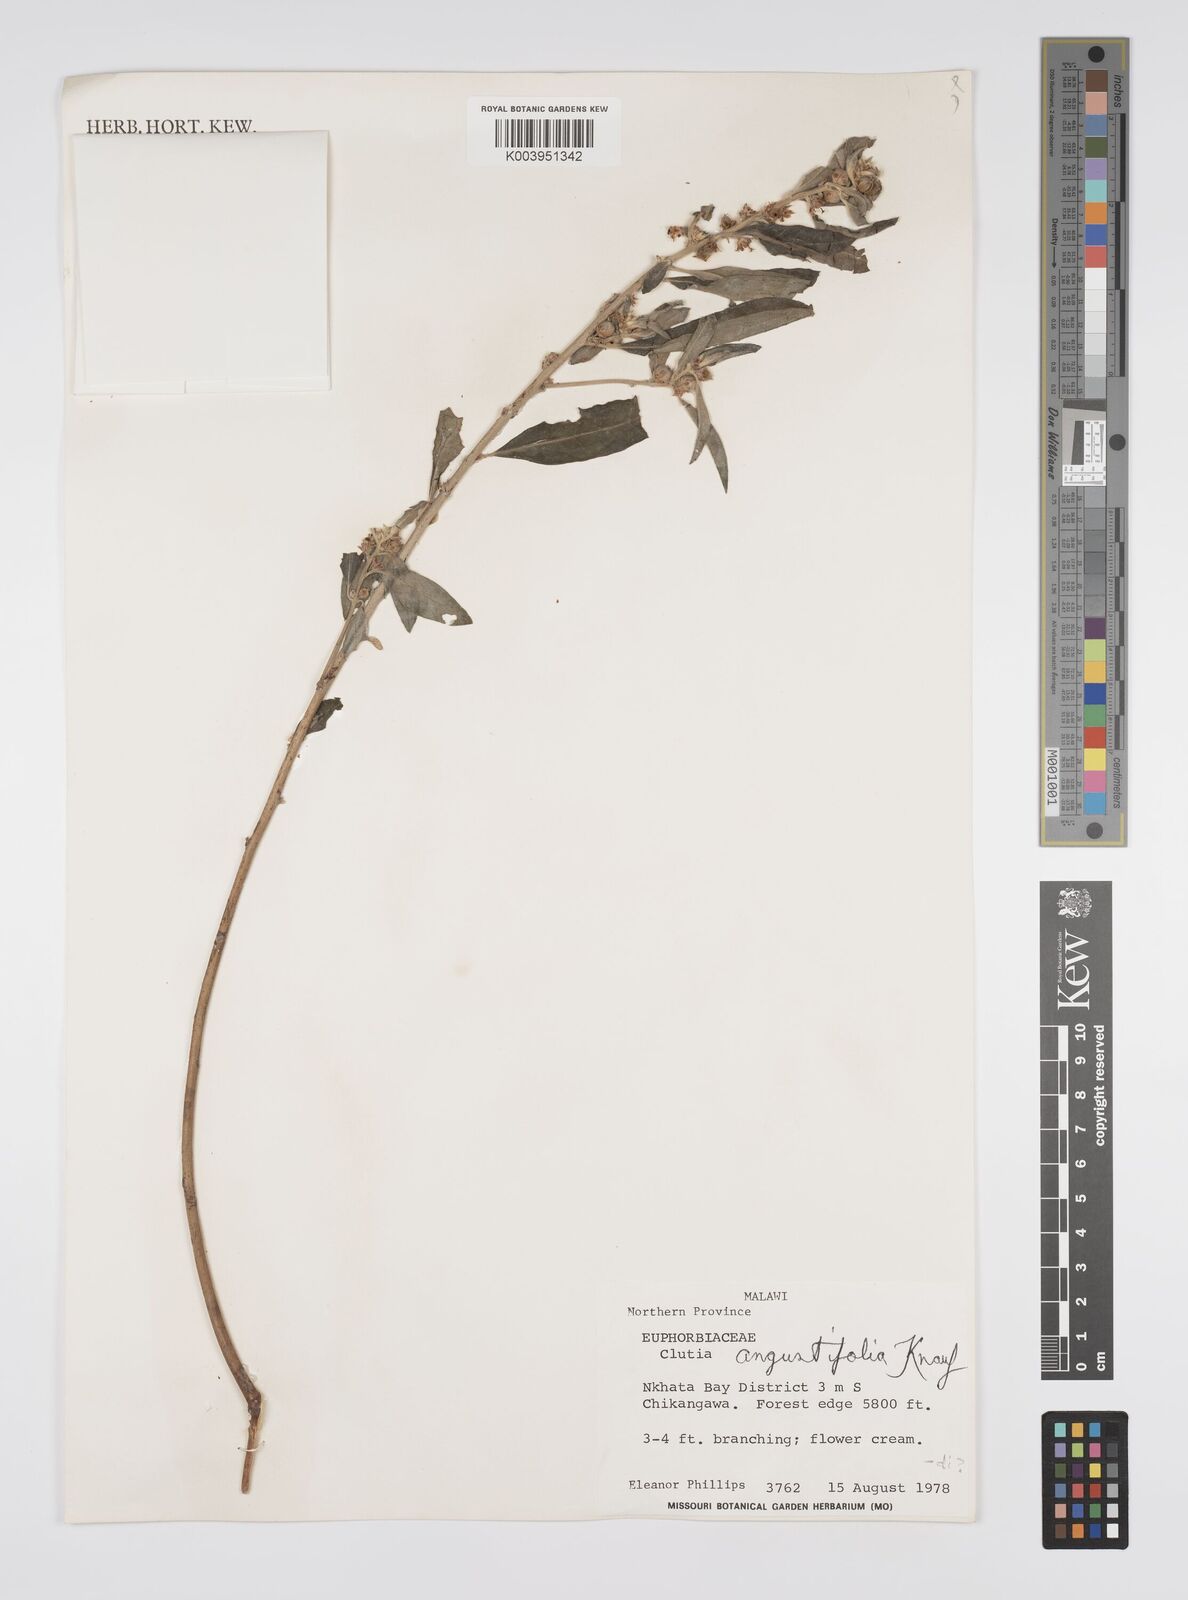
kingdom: Plantae
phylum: Tracheophyta
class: Magnoliopsida
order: Malpighiales
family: Peraceae
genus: Clutia
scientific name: Clutia angustifolia
